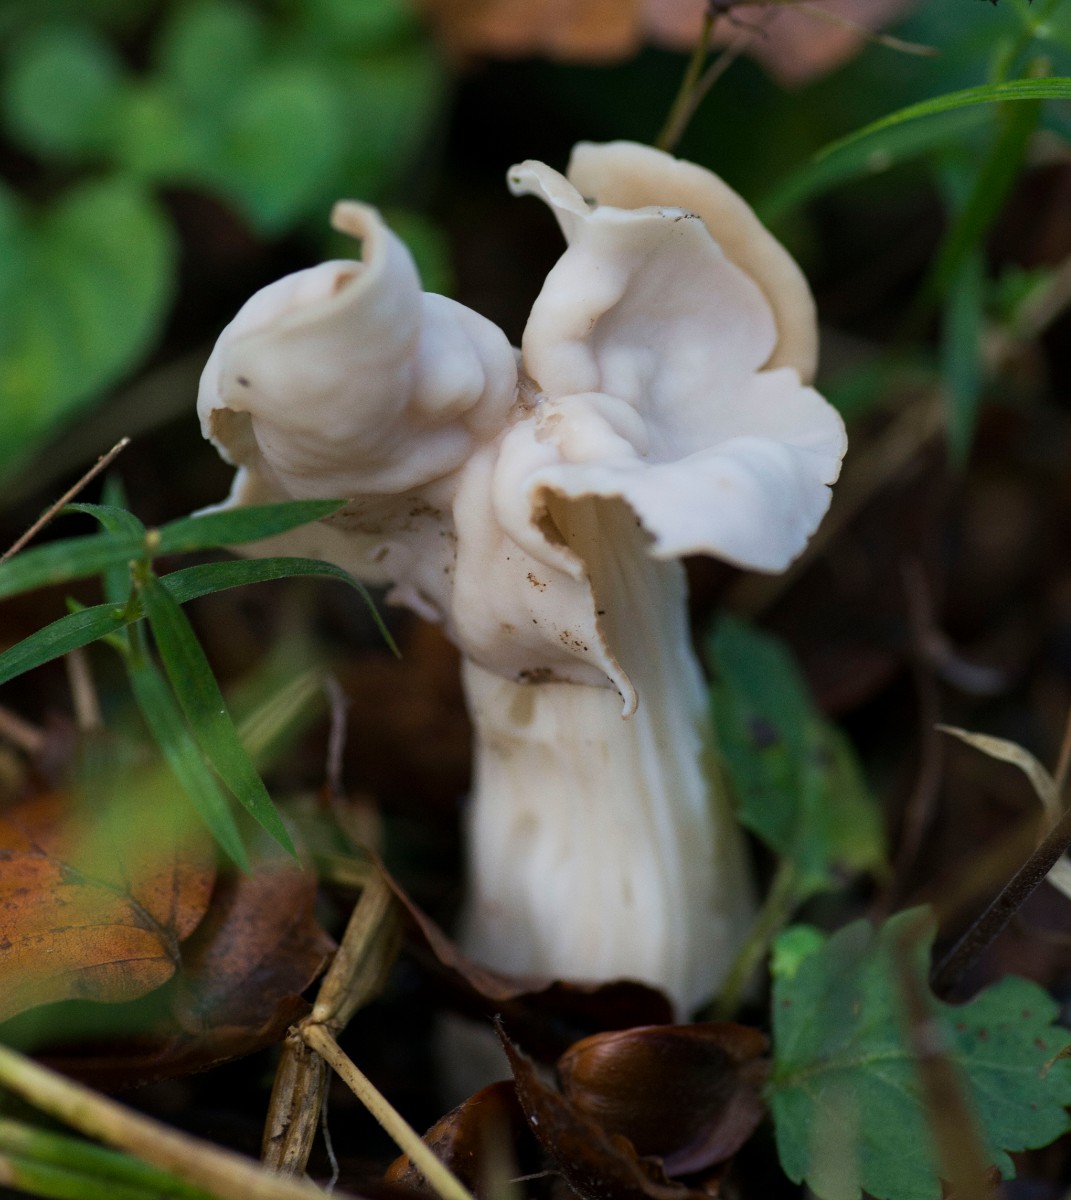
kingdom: Fungi
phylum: Ascomycota
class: Pezizomycetes
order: Pezizales
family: Helvellaceae
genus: Helvella
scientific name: Helvella crispa
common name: kruset foldhat
